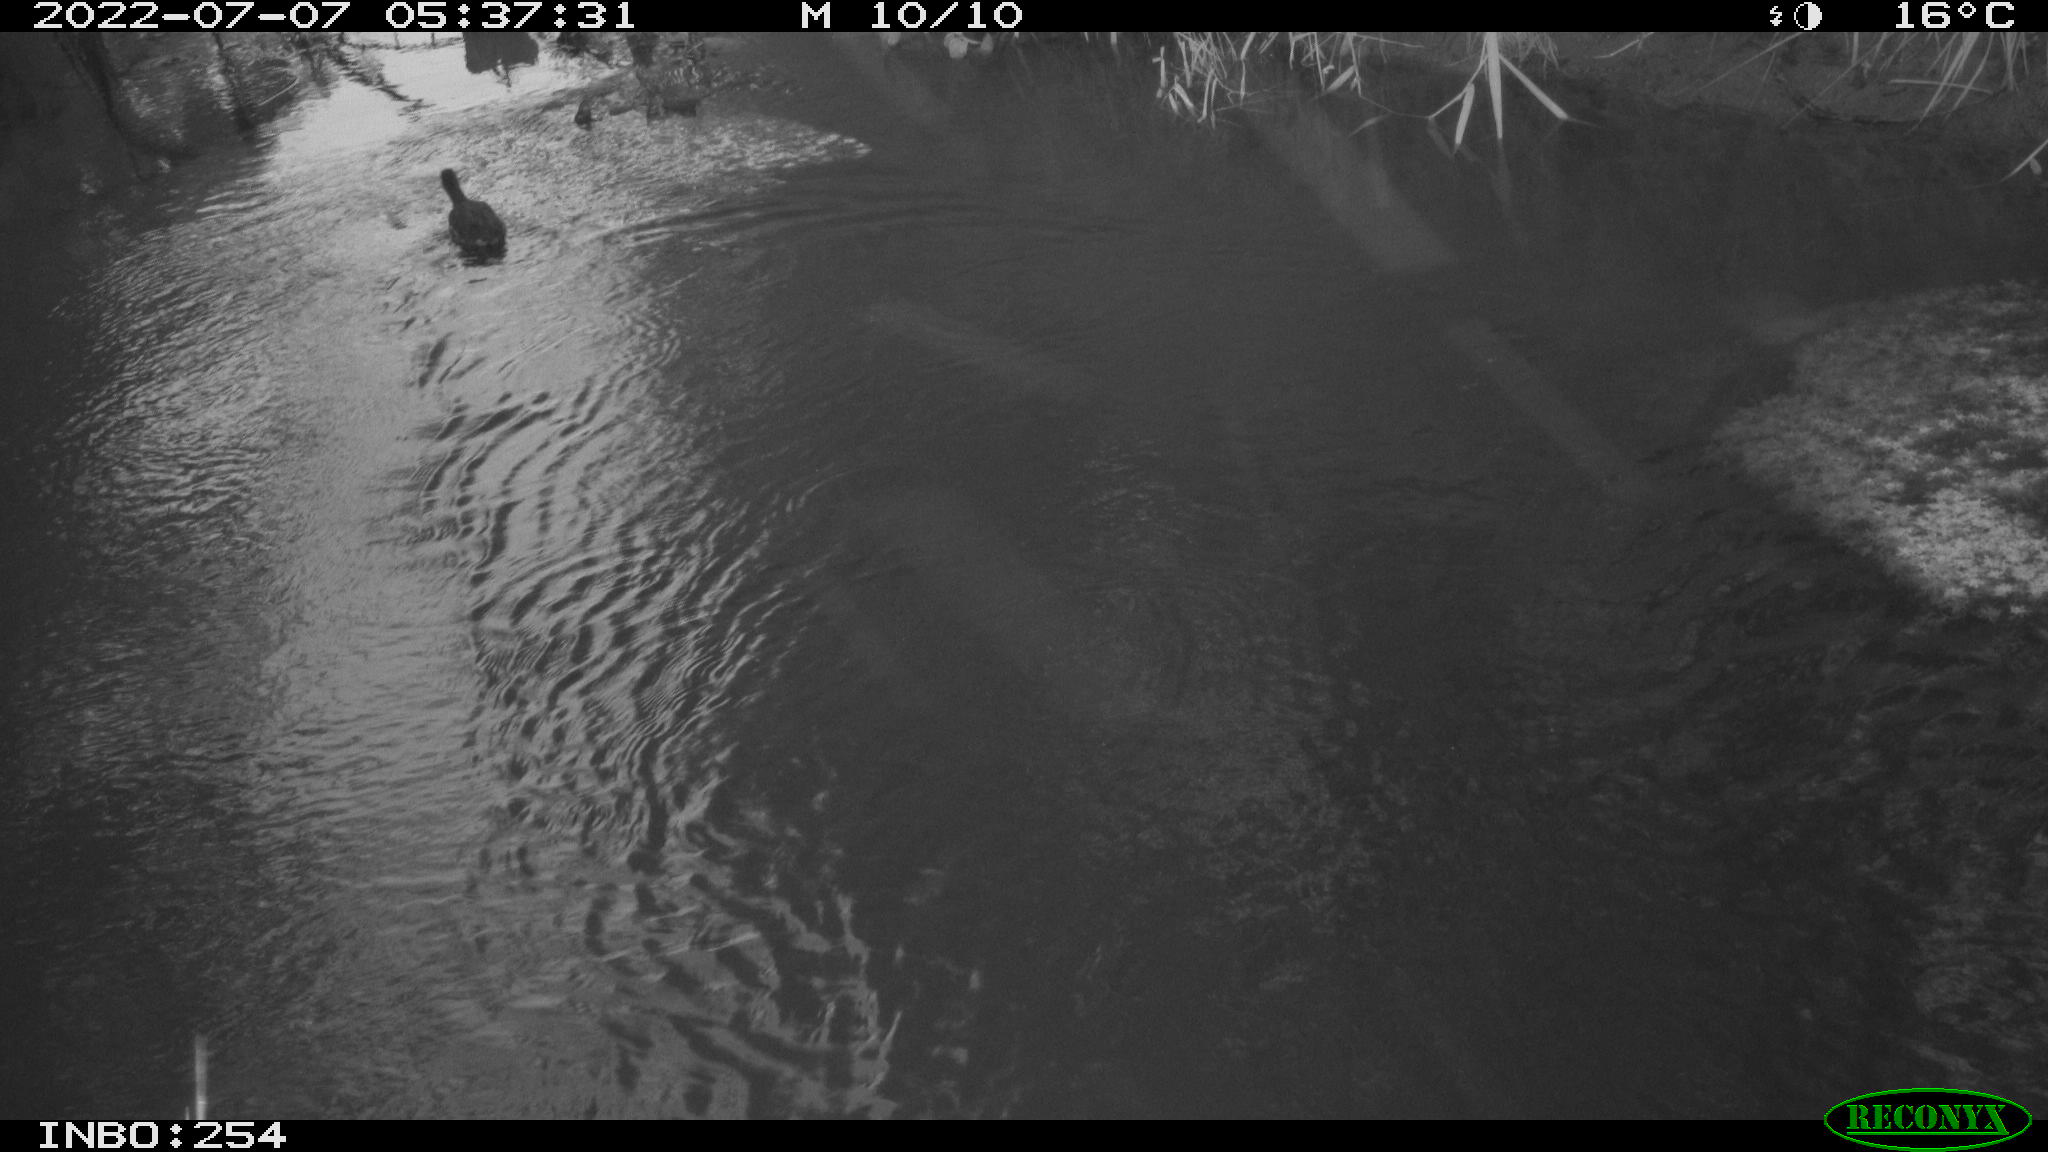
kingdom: Animalia
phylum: Chordata
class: Aves
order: Gruiformes
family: Rallidae
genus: Gallinula
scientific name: Gallinula chloropus
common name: Common moorhen
